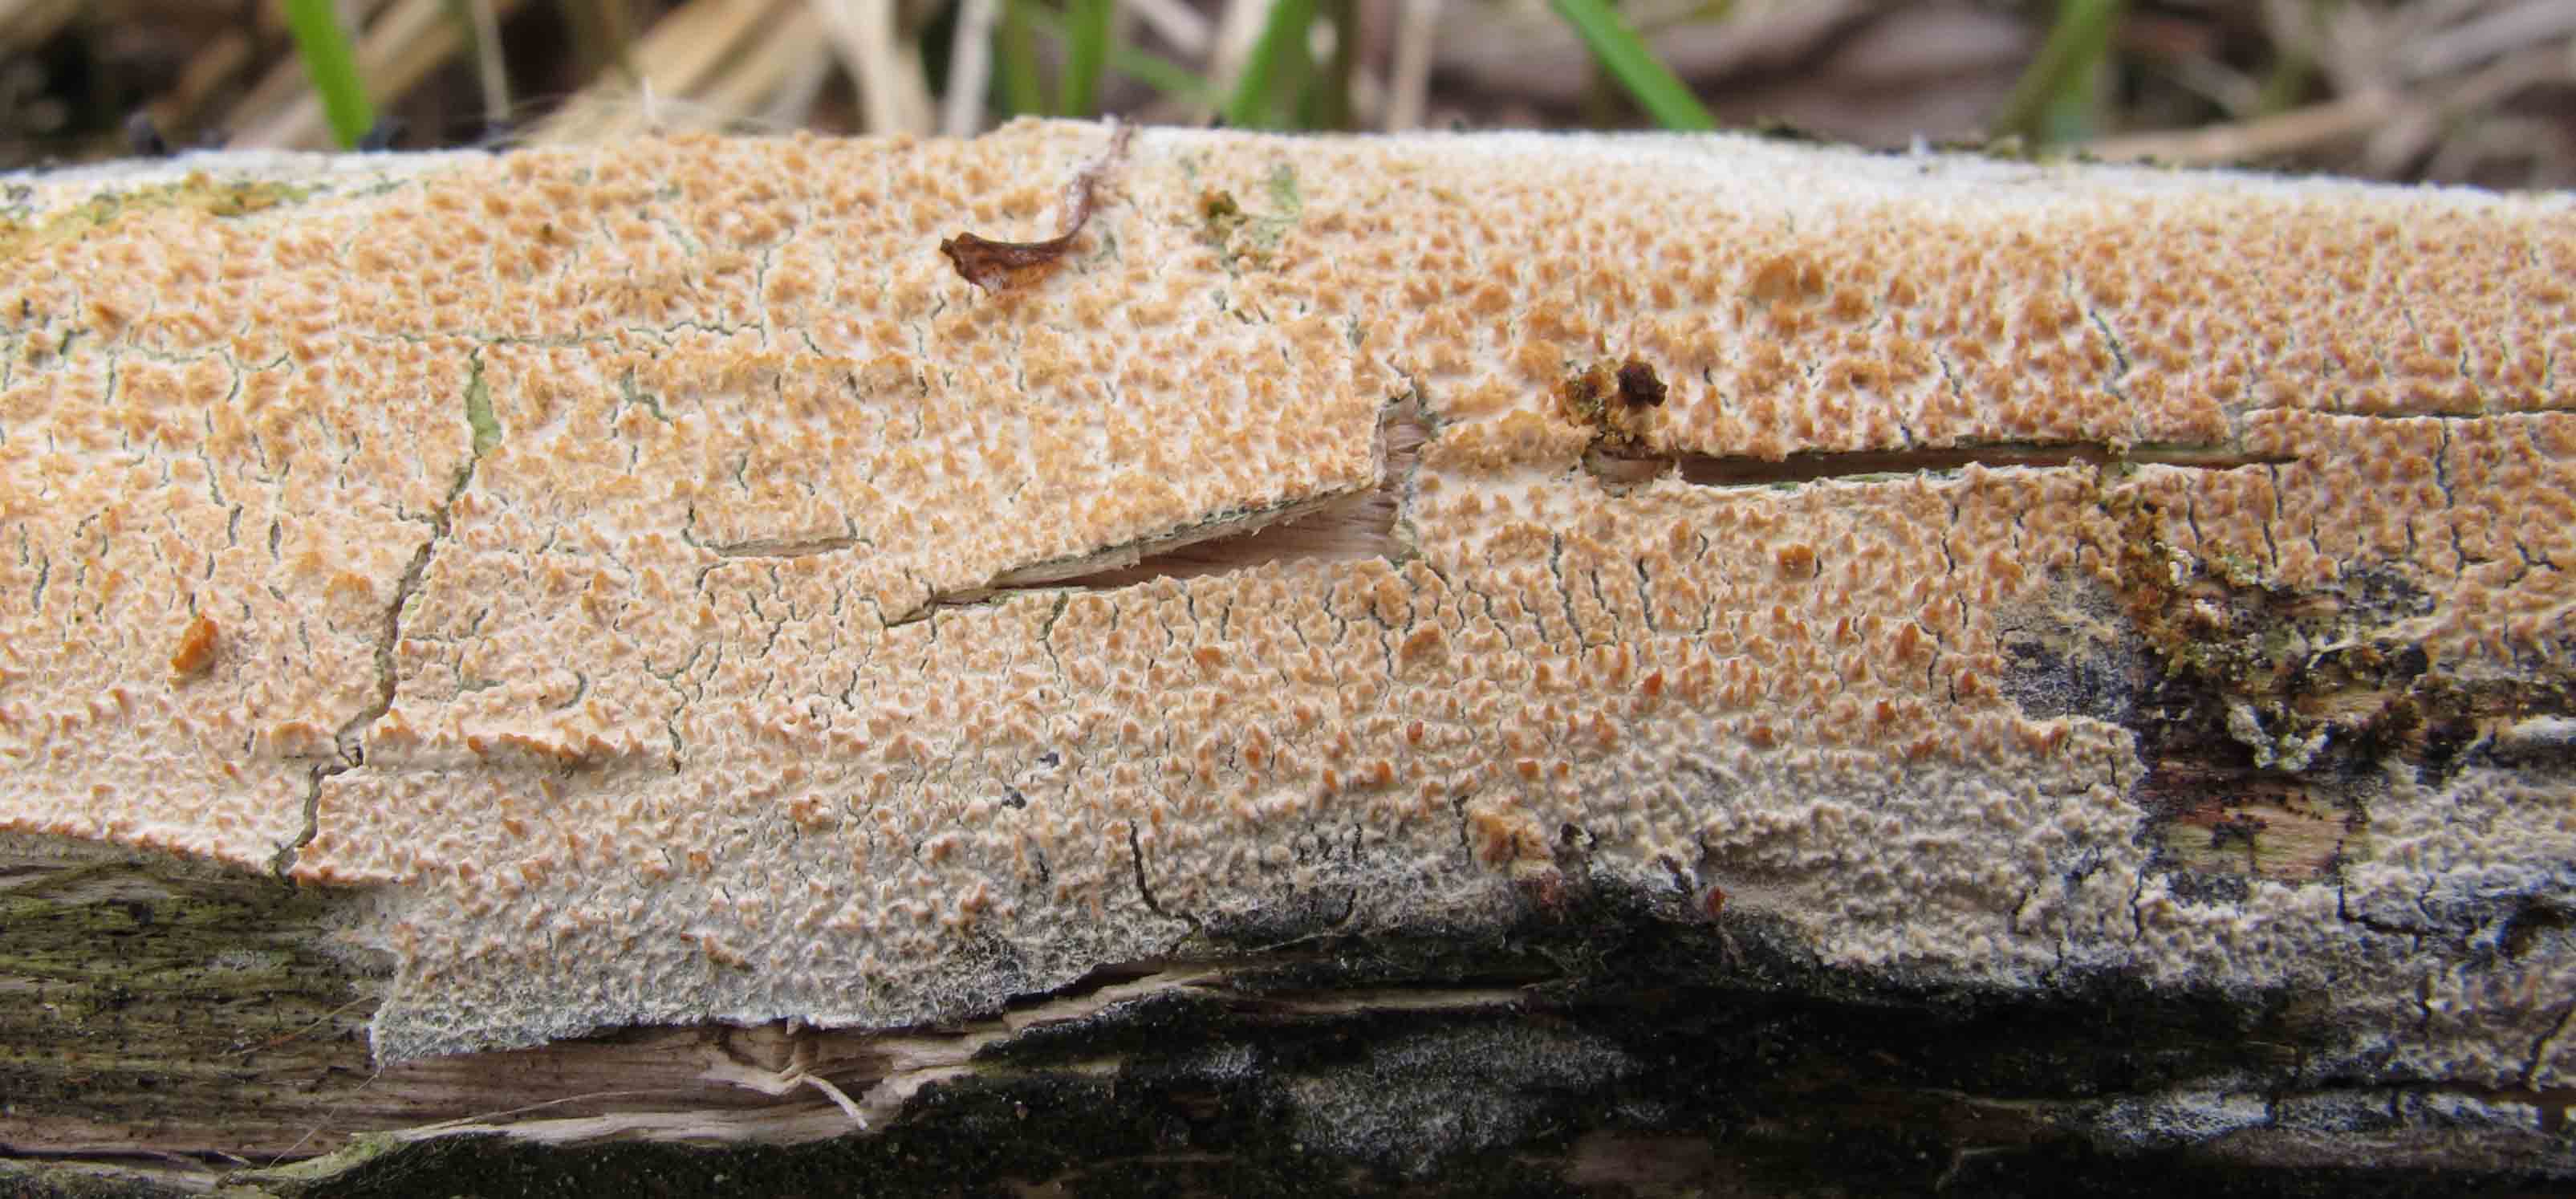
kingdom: Fungi
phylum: Basidiomycota
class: Agaricomycetes
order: Hymenochaetales
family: Hyphodontiaceae
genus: Hyphodontia
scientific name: Hyphodontia quercina
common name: ege-tandsvamp
